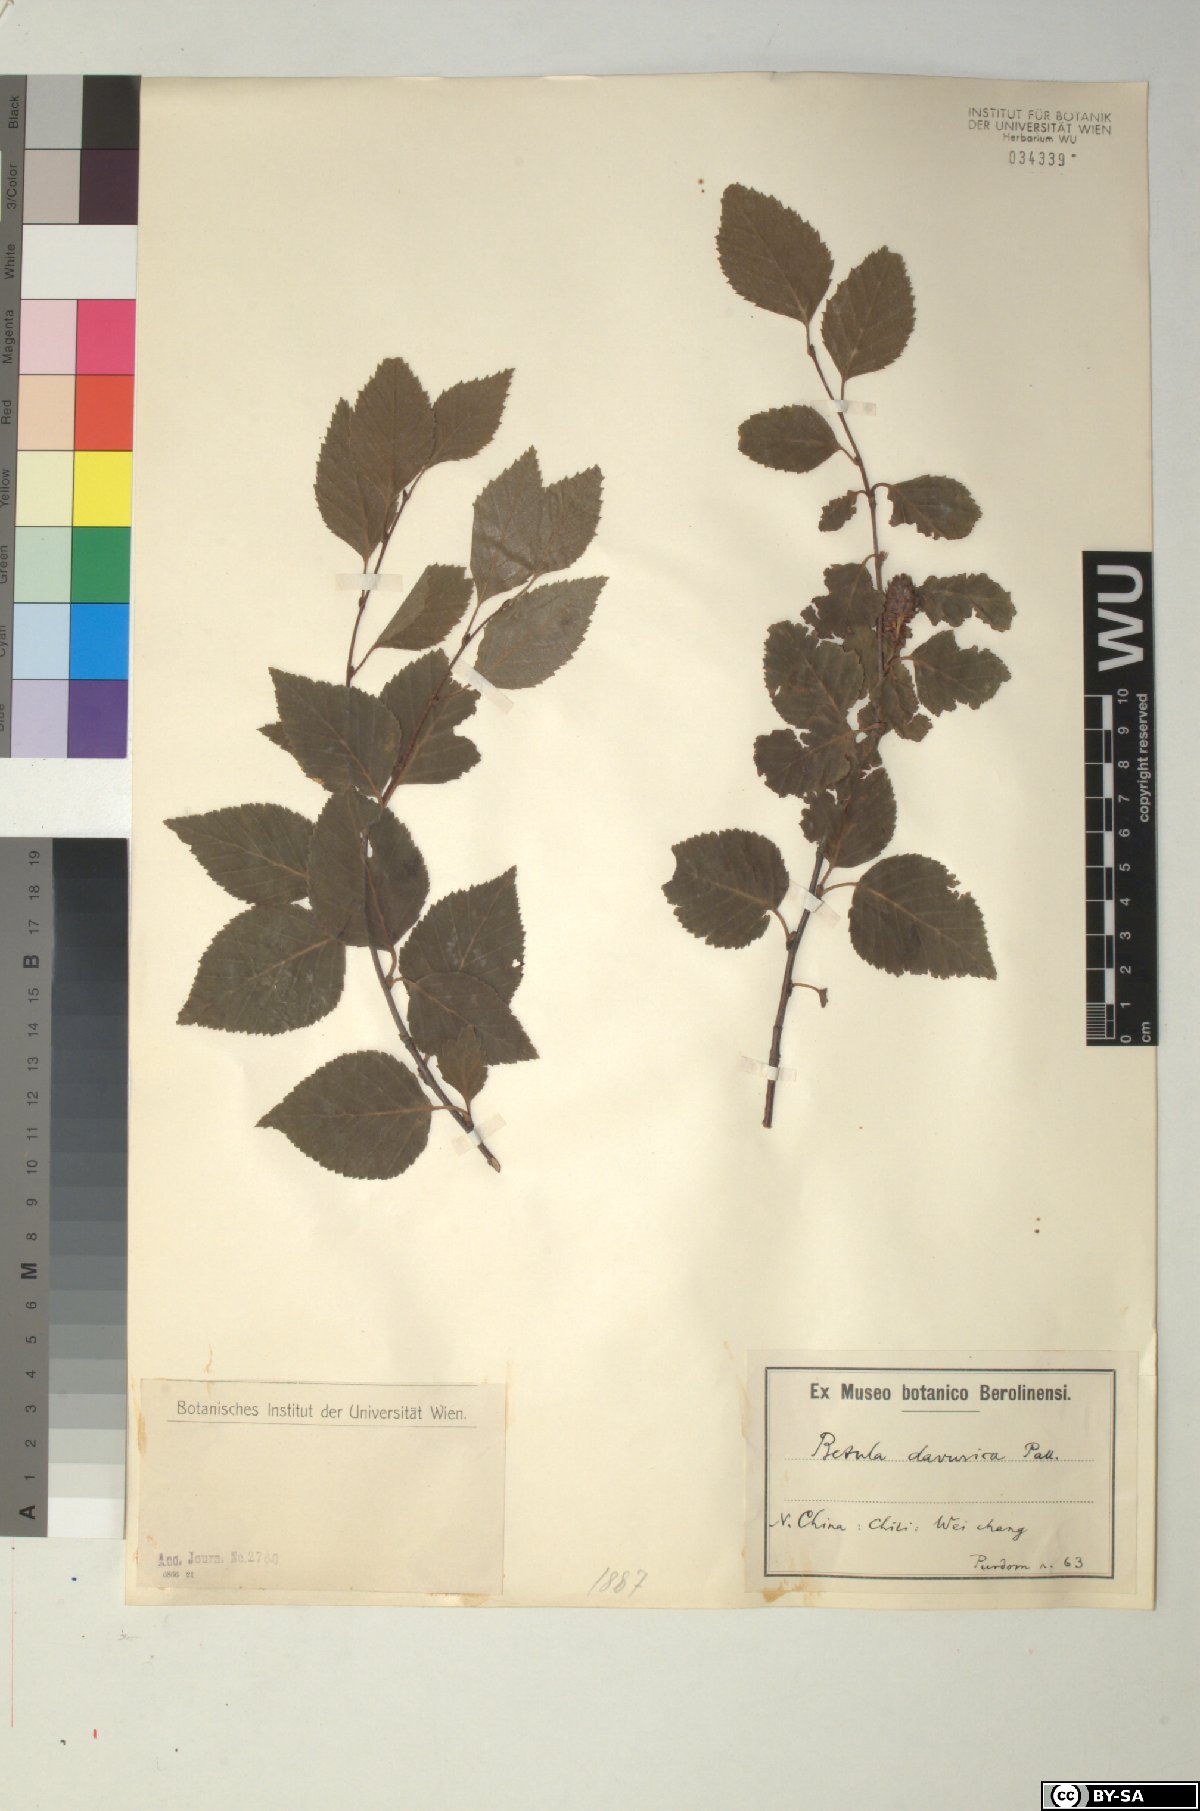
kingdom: Plantae
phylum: Tracheophyta
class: Magnoliopsida
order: Fagales
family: Betulaceae
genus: Betula
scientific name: Betula dahurica
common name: Asian black birch
